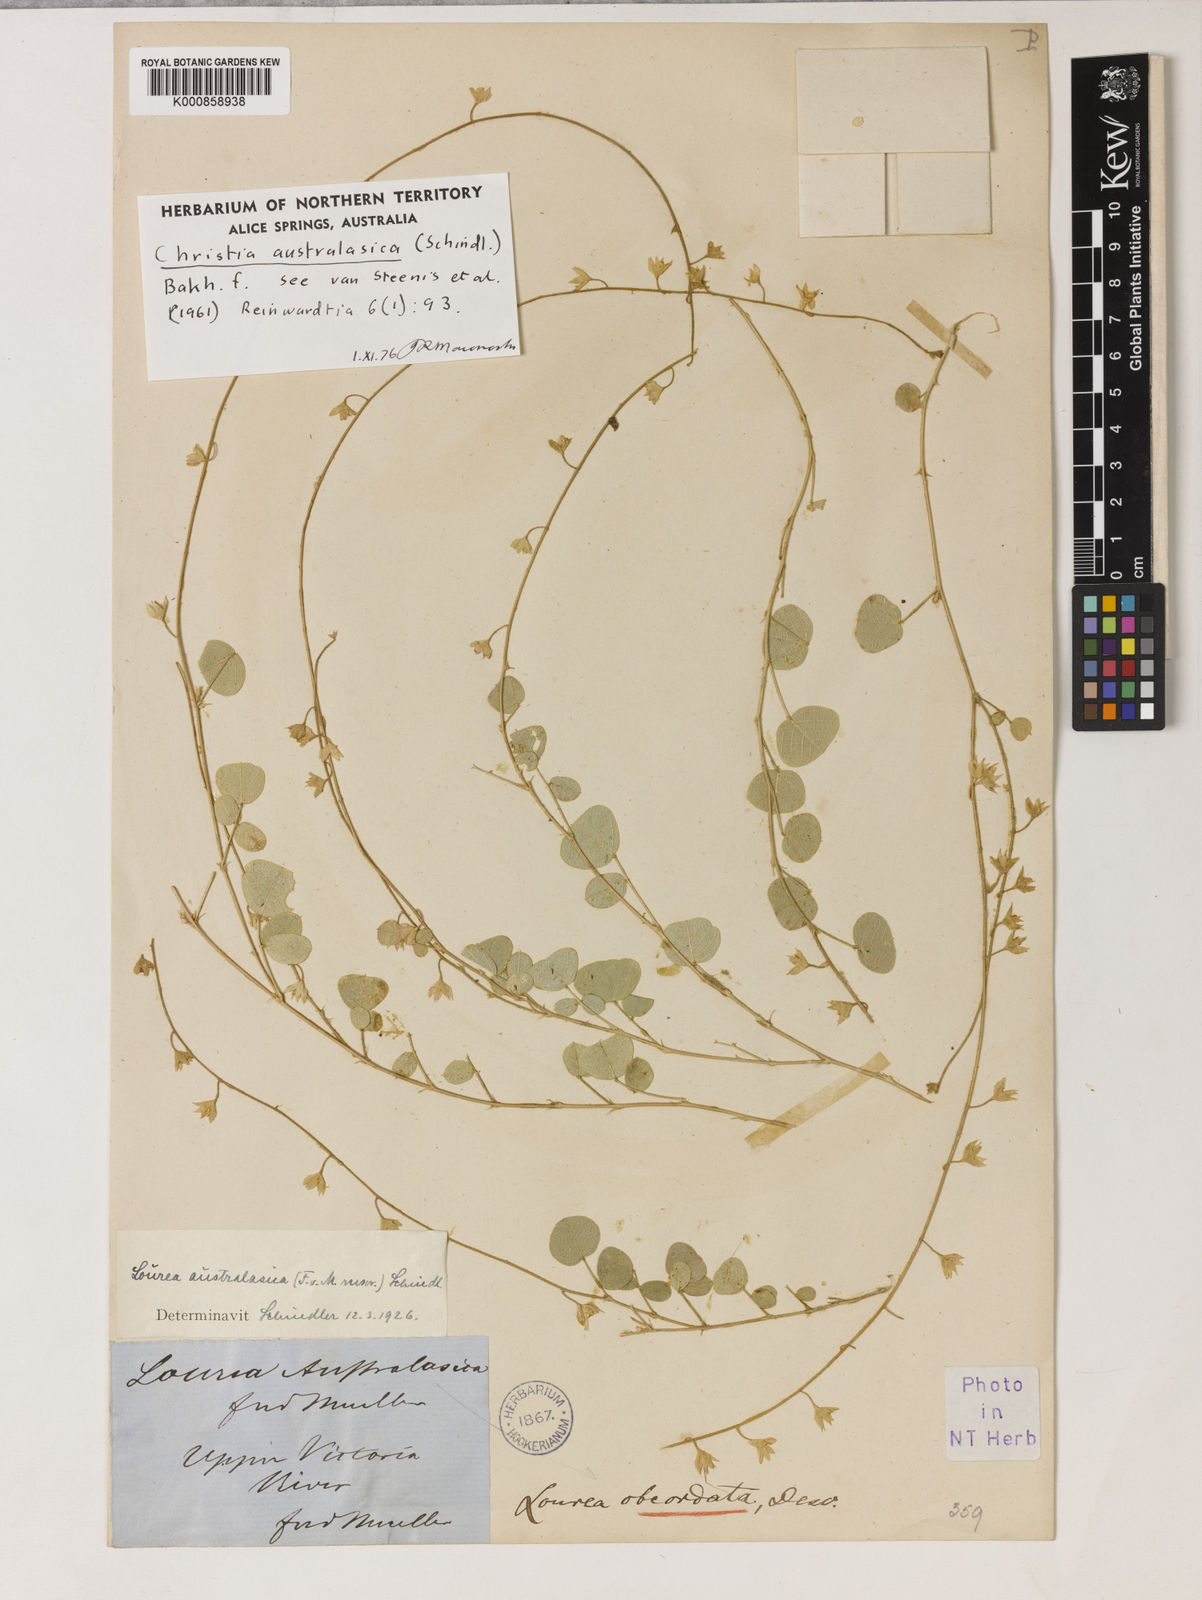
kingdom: Plantae
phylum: Tracheophyta
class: Magnoliopsida
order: Fabales
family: Fabaceae
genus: Christia
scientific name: Christia australasica
